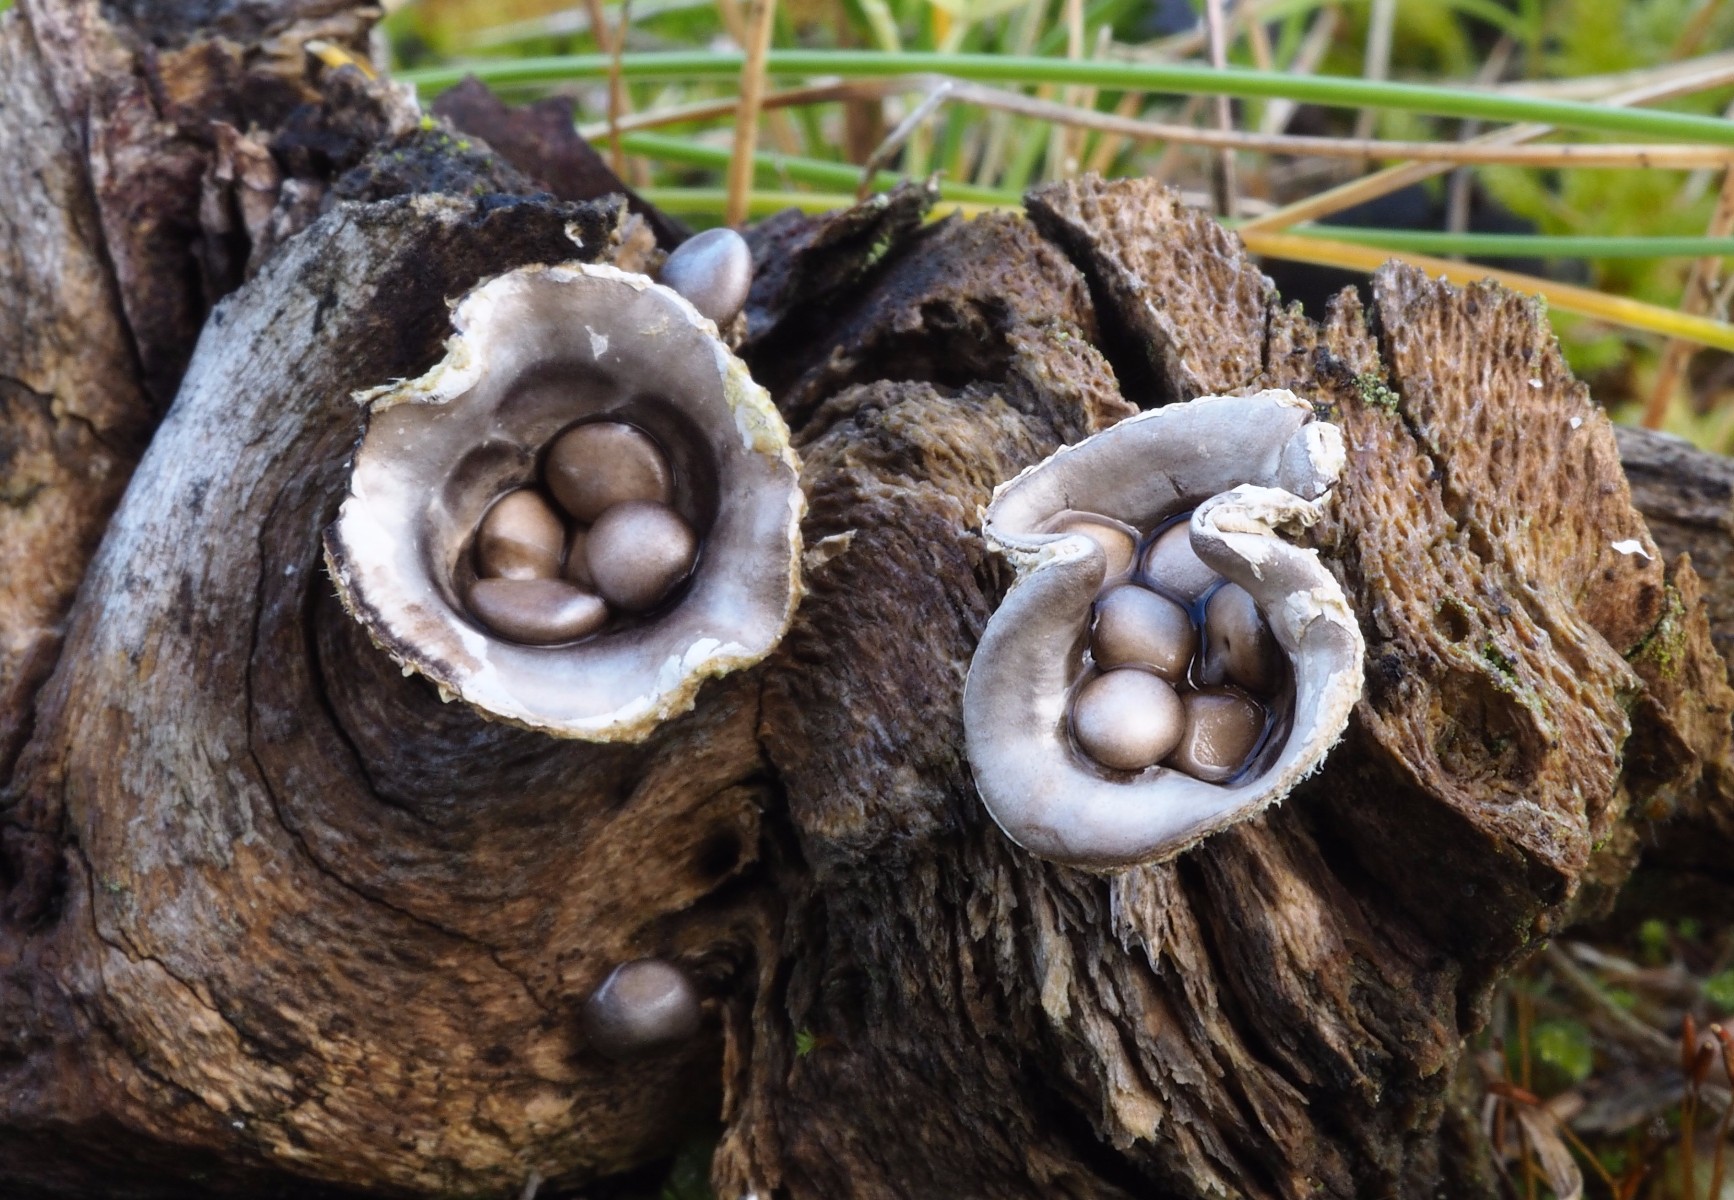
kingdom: Fungi
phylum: Basidiomycota
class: Agaricomycetes
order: Agaricales
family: Agaricaceae
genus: Cyathus
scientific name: Cyathus olla
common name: klokke-redesvamp
